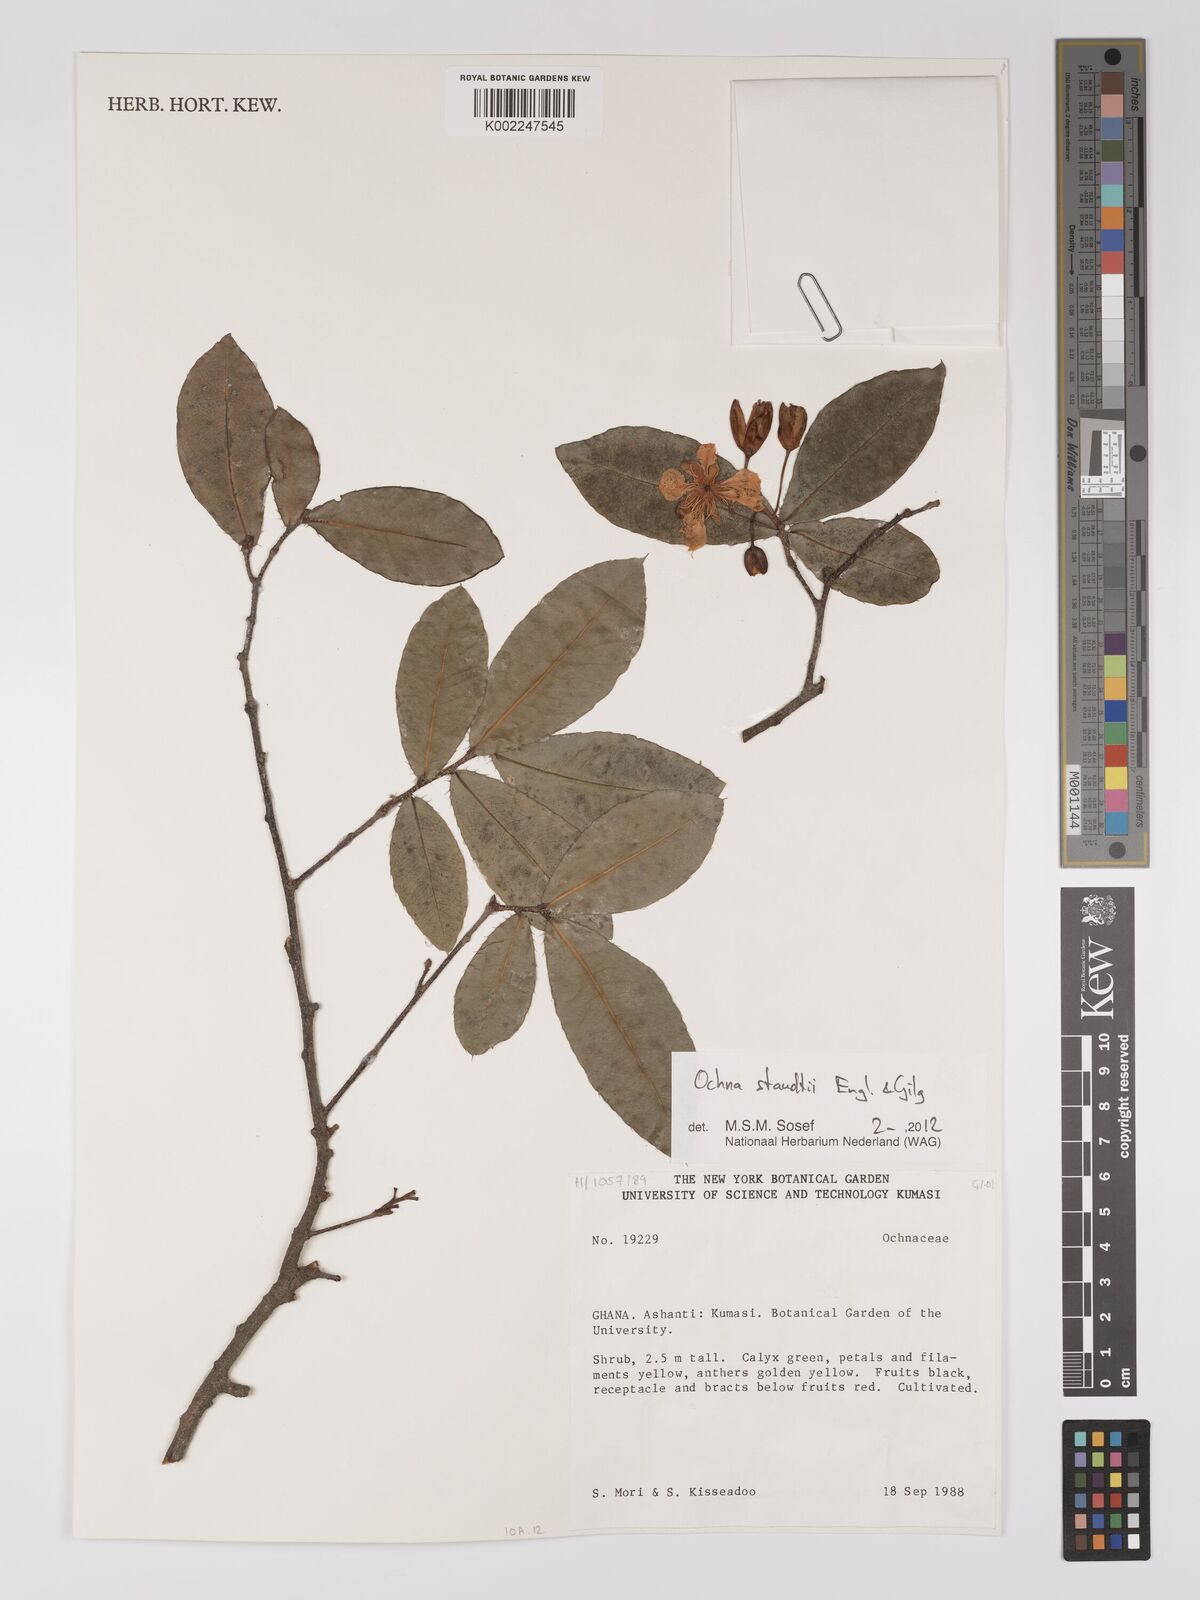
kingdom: Plantae
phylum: Tracheophyta
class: Magnoliopsida
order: Malpighiales
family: Ochnaceae
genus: Ochna
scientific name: Ochna staudtii
